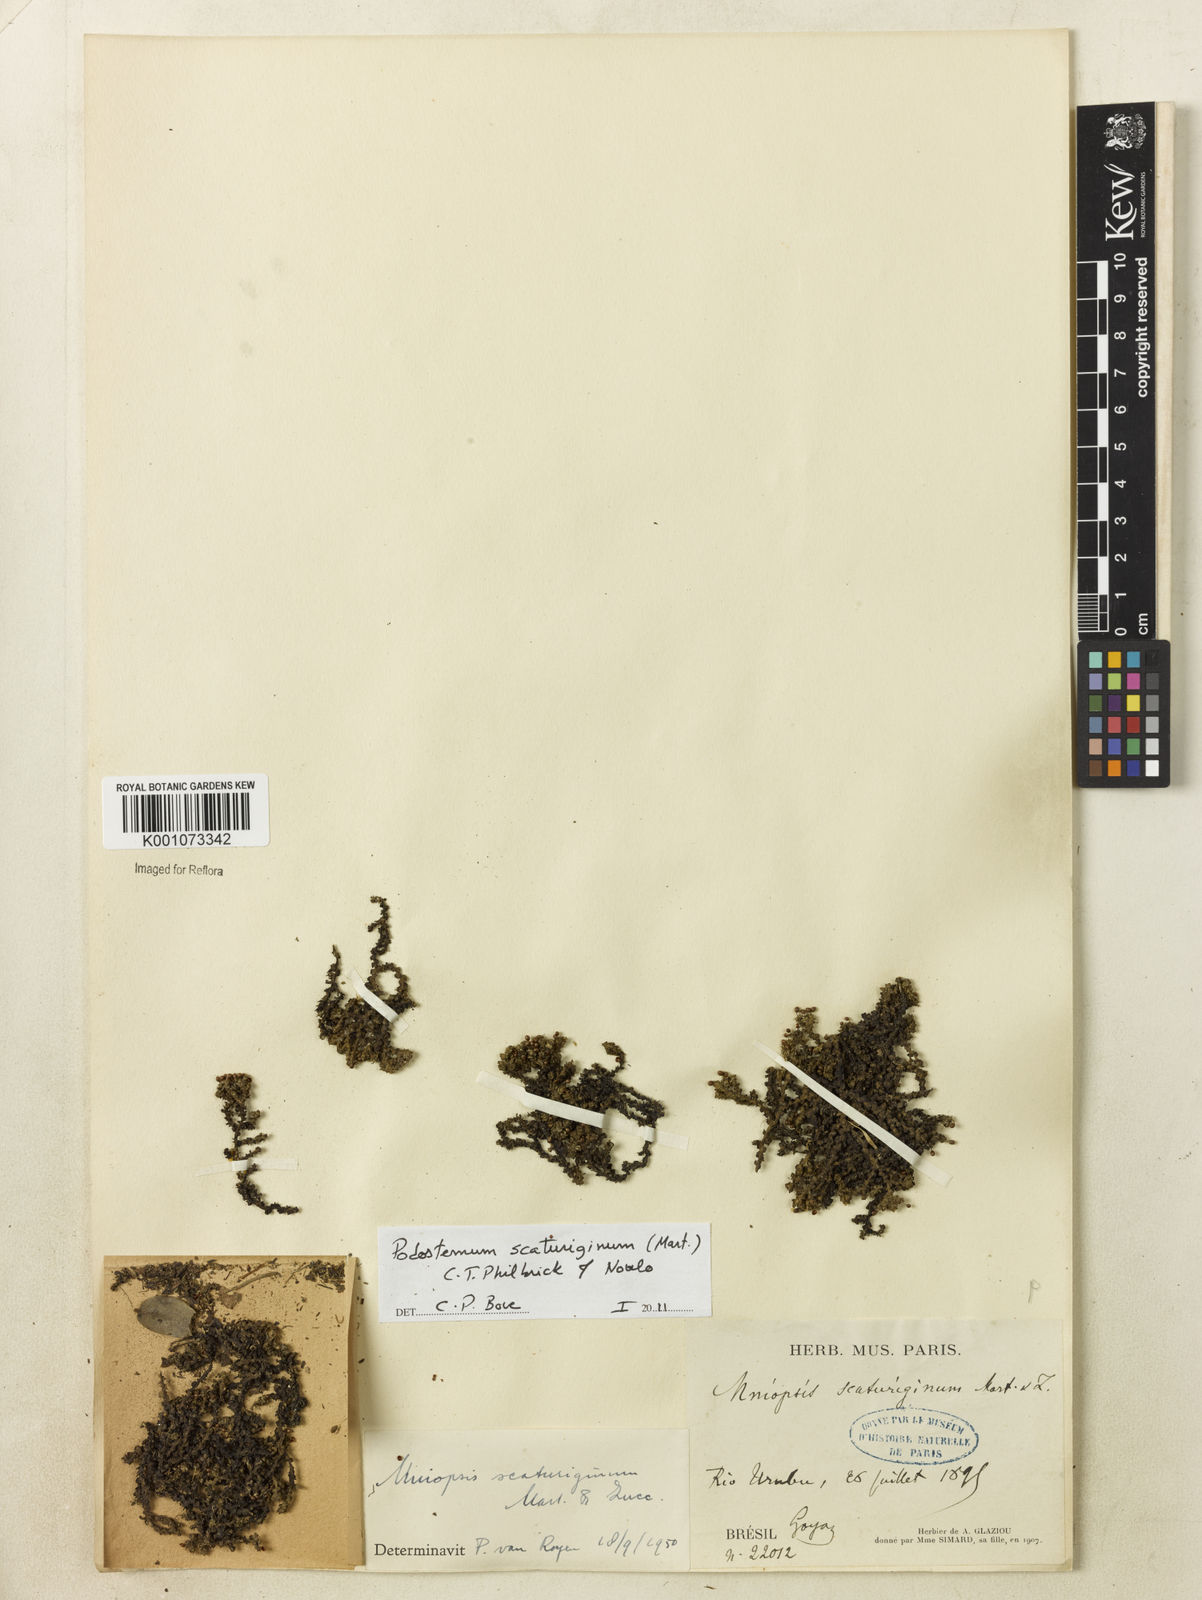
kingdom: Plantae
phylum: Tracheophyta
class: Magnoliopsida
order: Malpighiales
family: Podostemaceae
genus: Podostemum
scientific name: Podostemum scaturiginum
